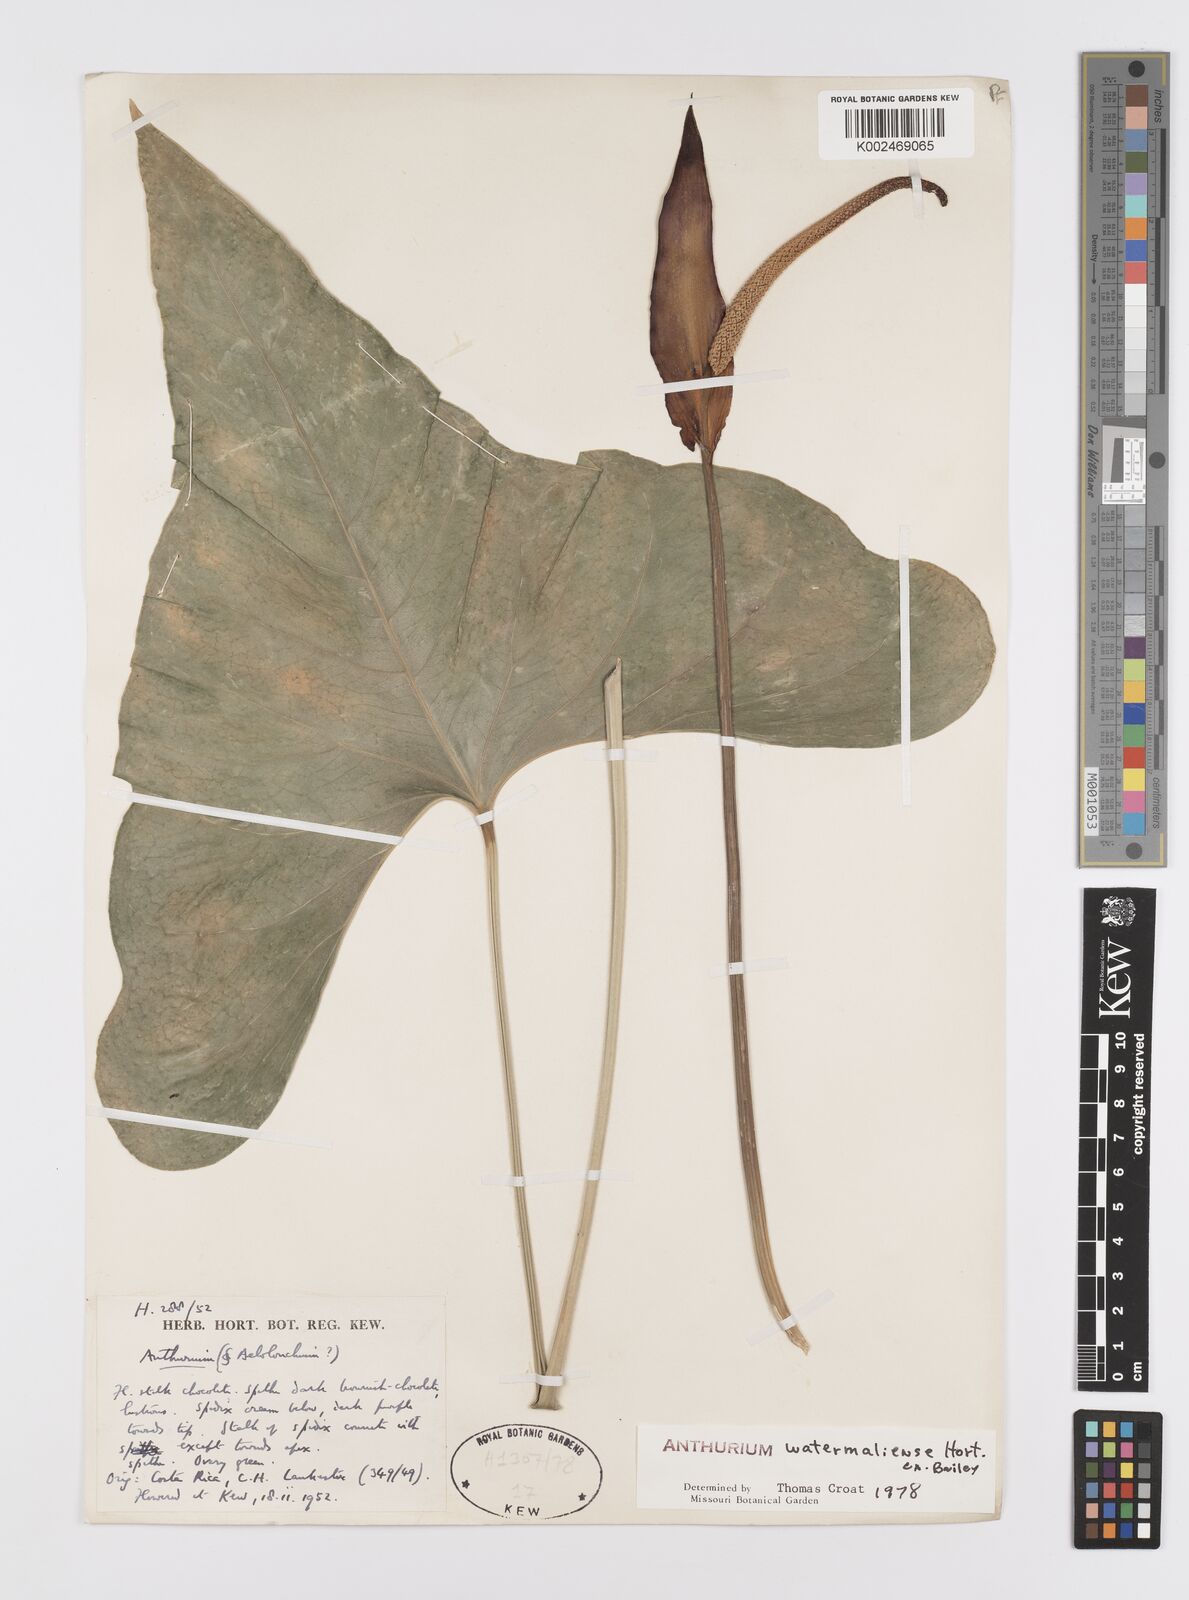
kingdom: Plantae
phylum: Tracheophyta
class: Liliopsida
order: Alismatales
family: Araceae
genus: Anthurium
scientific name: Anthurium watermaliense
